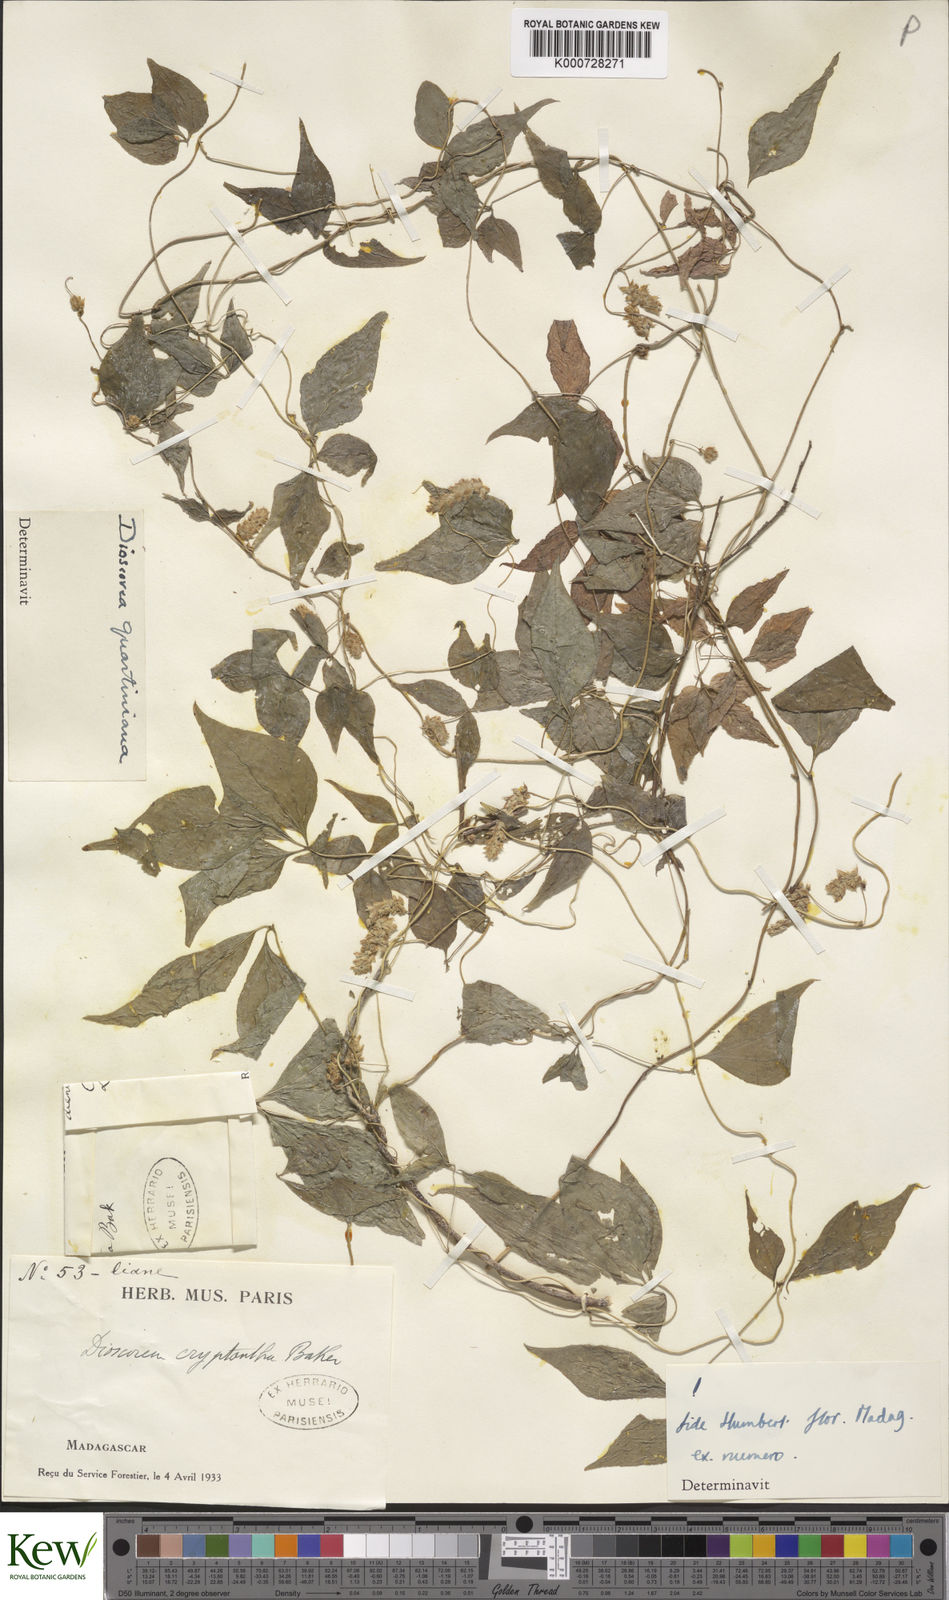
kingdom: Plantae
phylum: Tracheophyta
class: Liliopsida
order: Dioscoreales
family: Dioscoreaceae
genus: Dioscorea
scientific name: Dioscorea quartiniana
